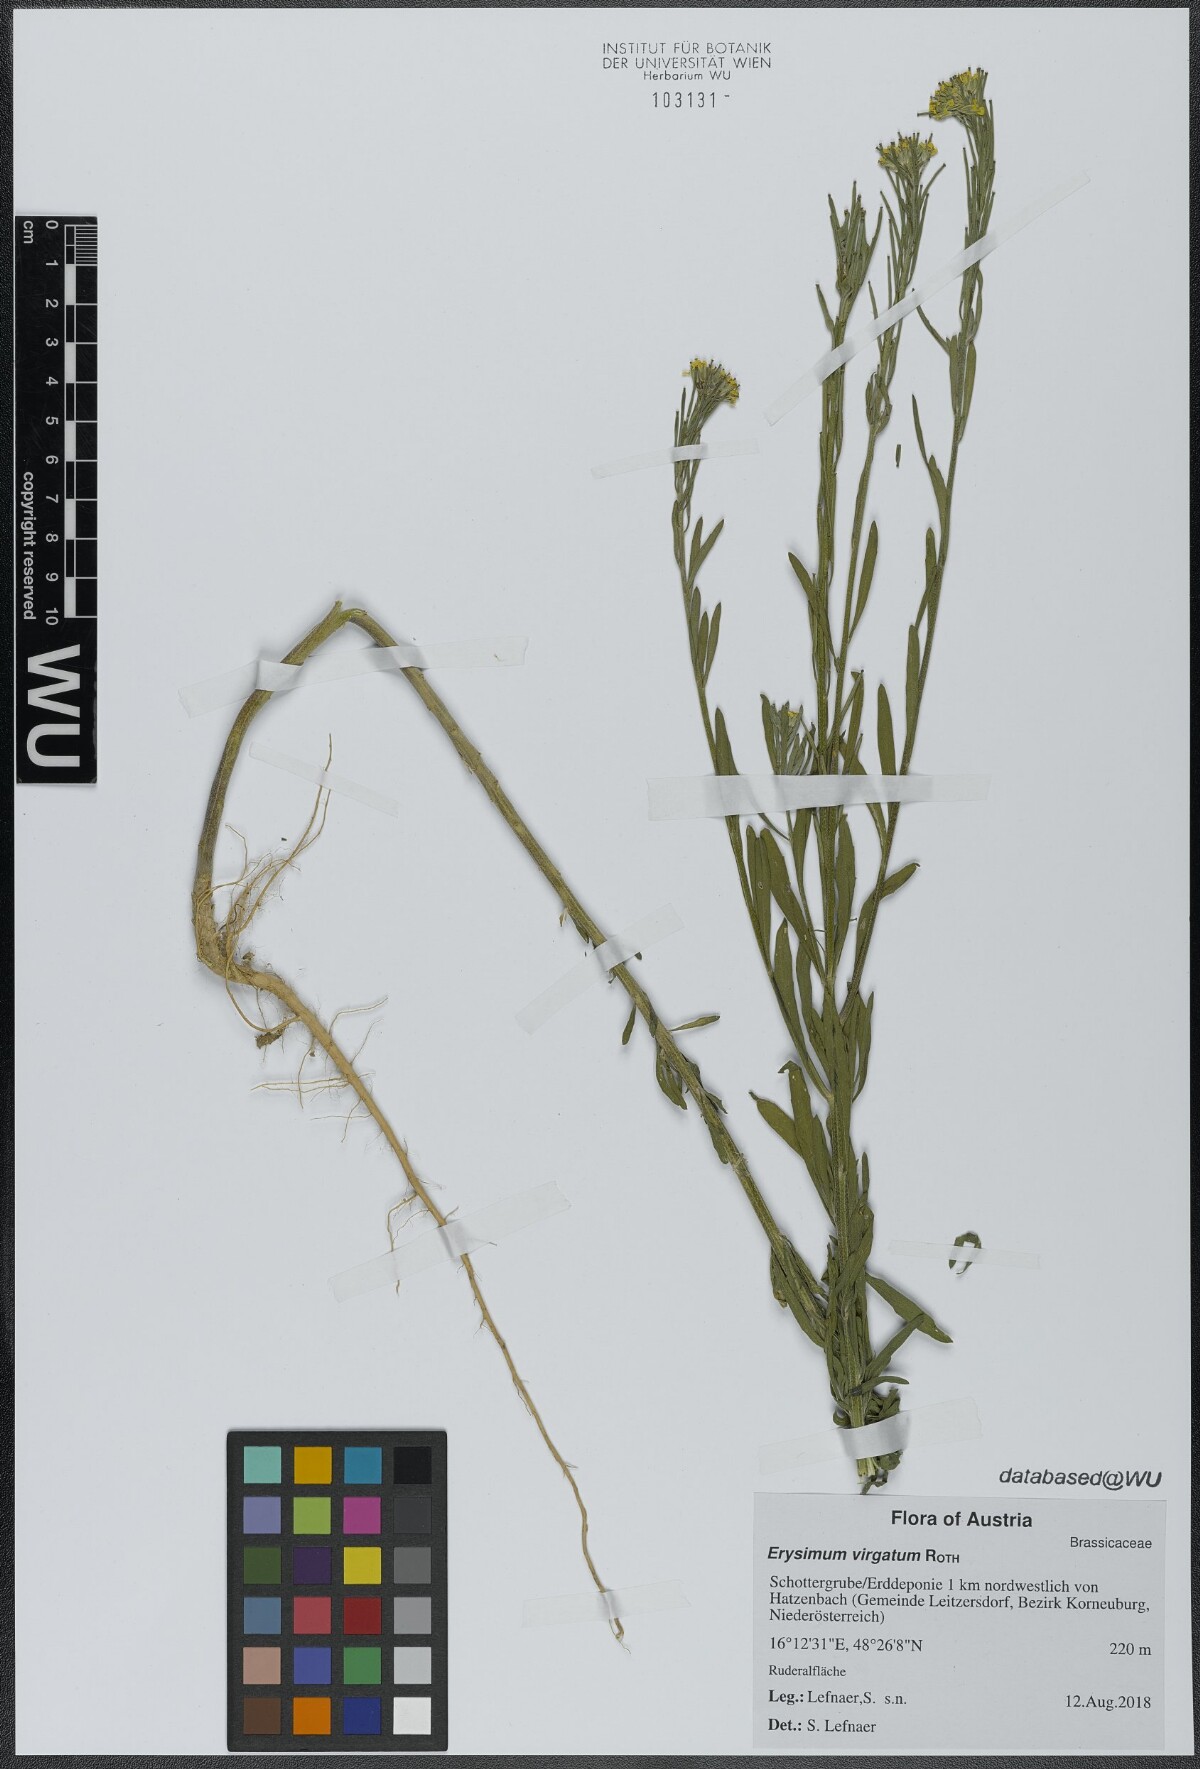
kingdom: Plantae
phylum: Tracheophyta
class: Magnoliopsida
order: Brassicales
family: Brassicaceae
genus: Erysimum
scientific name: Erysimum virgatum
